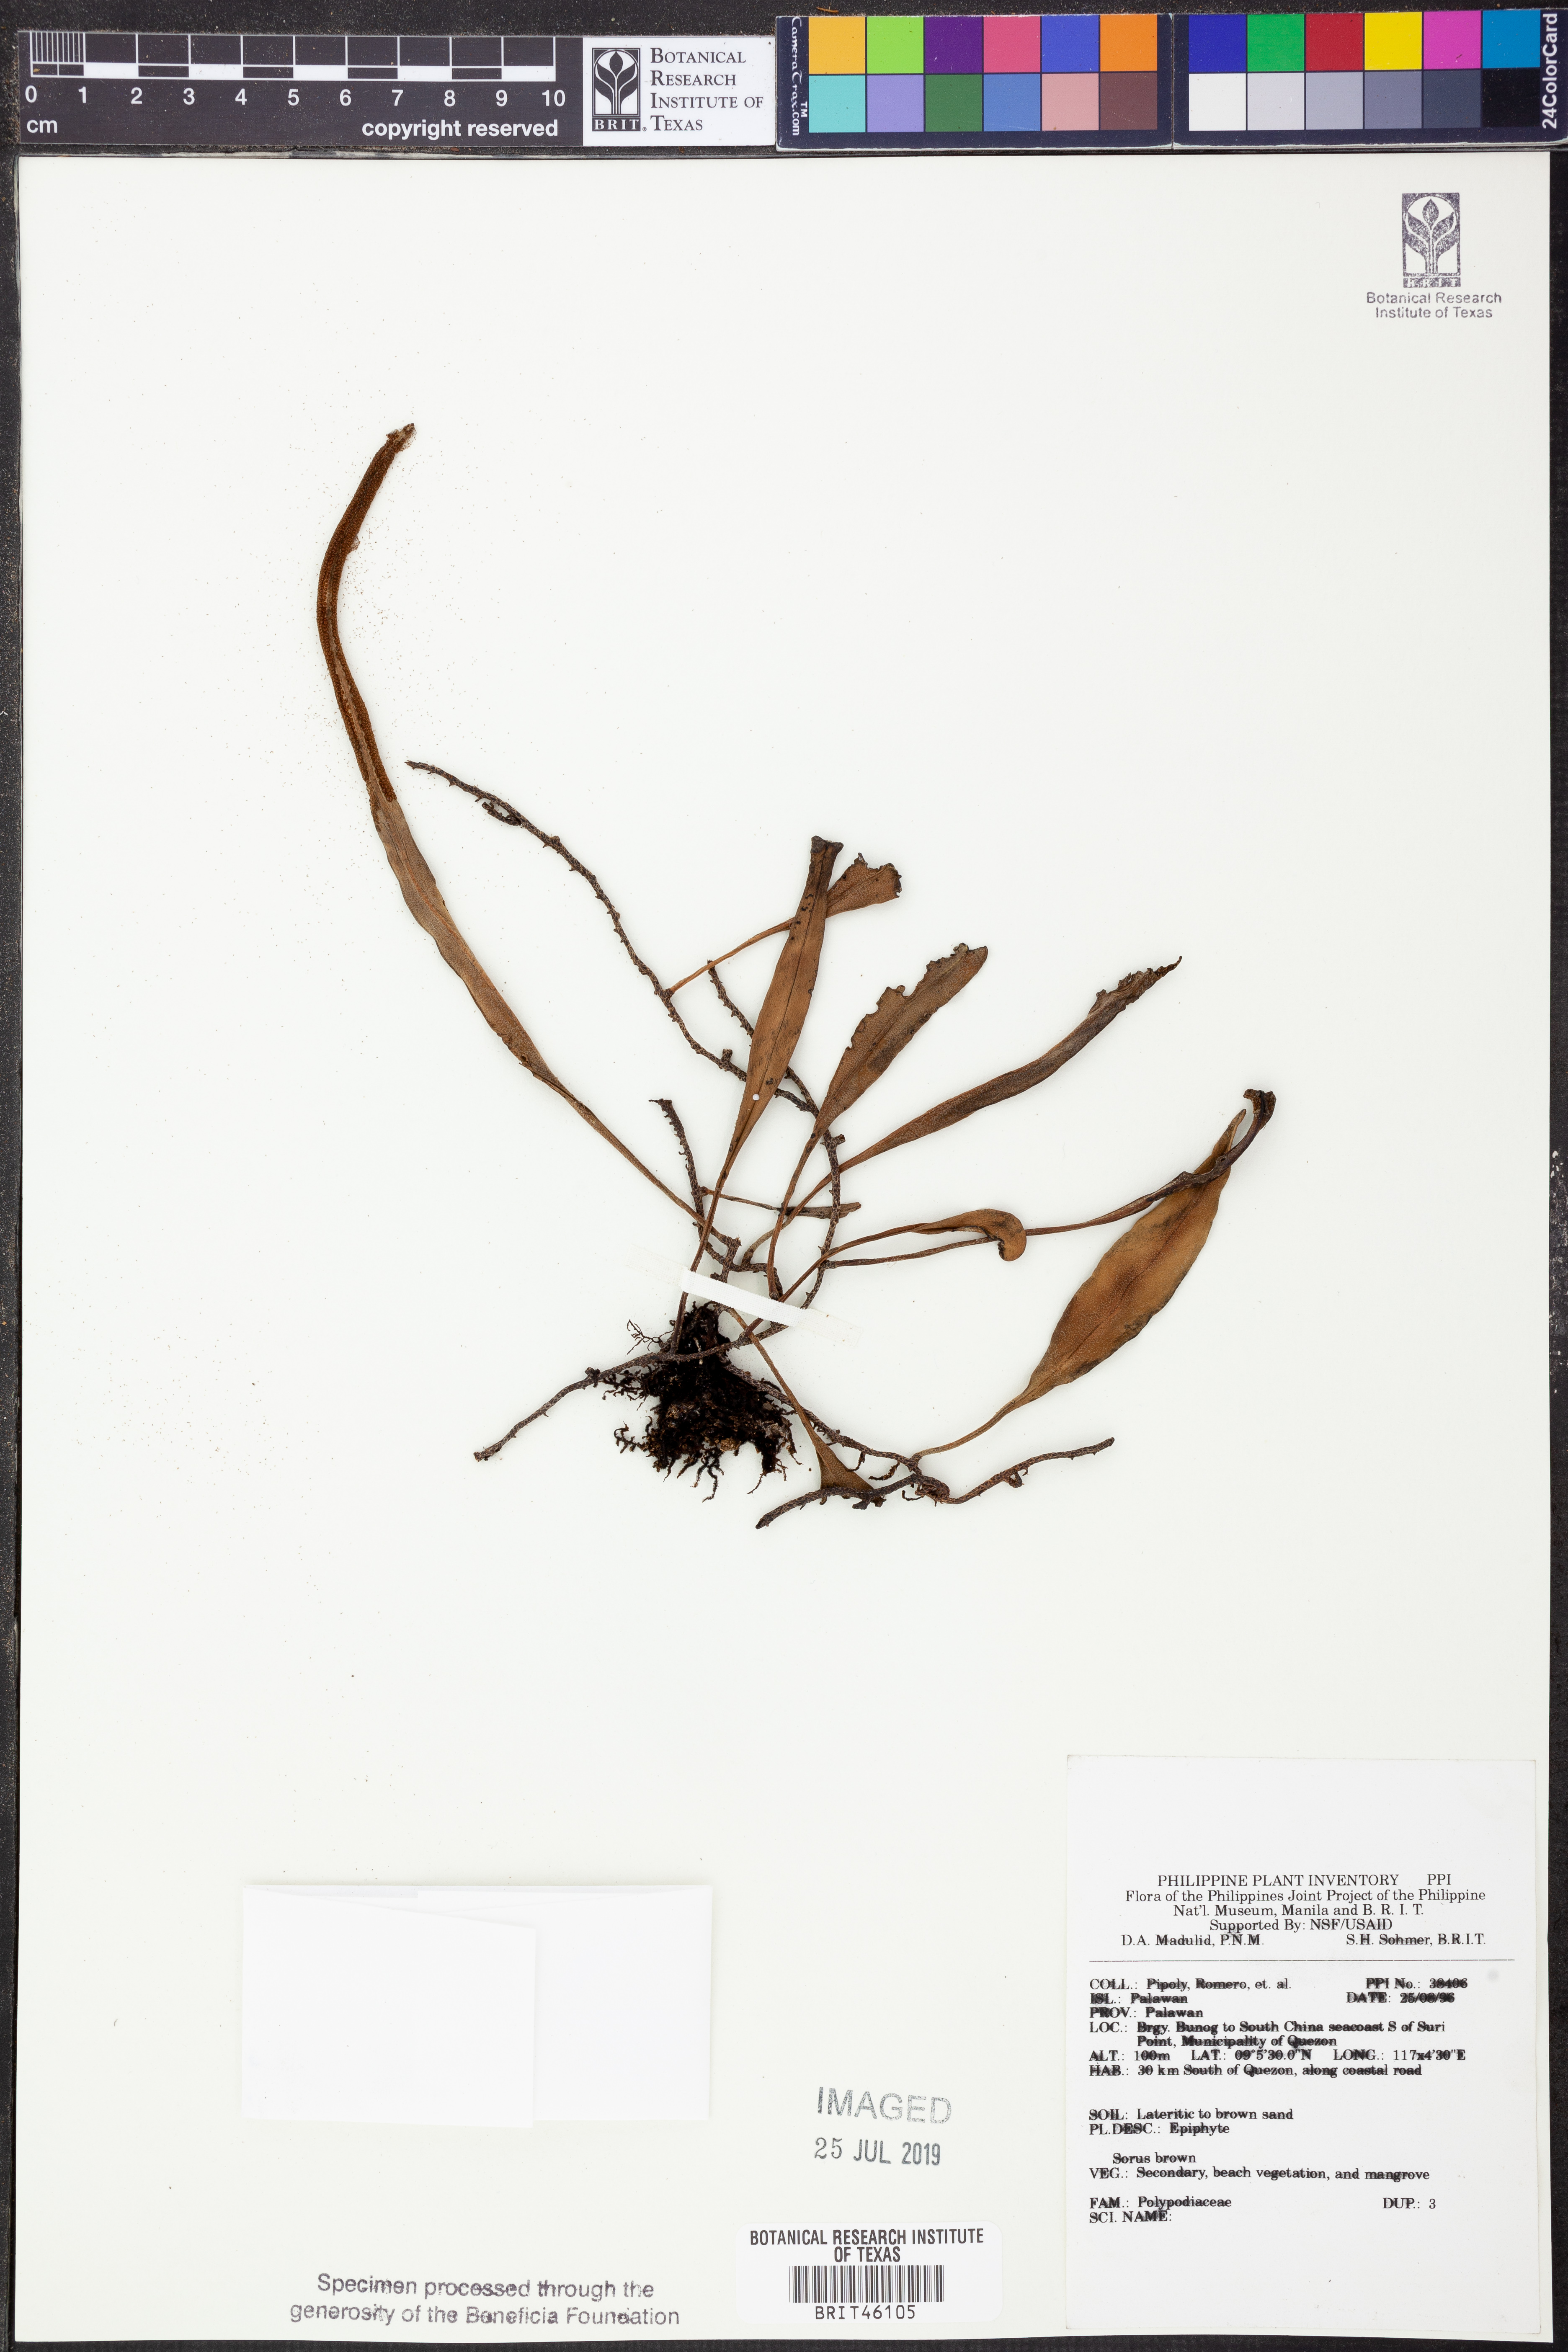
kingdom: Plantae
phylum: Tracheophyta
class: Polypodiopsida
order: Polypodiales
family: Polypodiaceae
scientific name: Polypodiaceae
